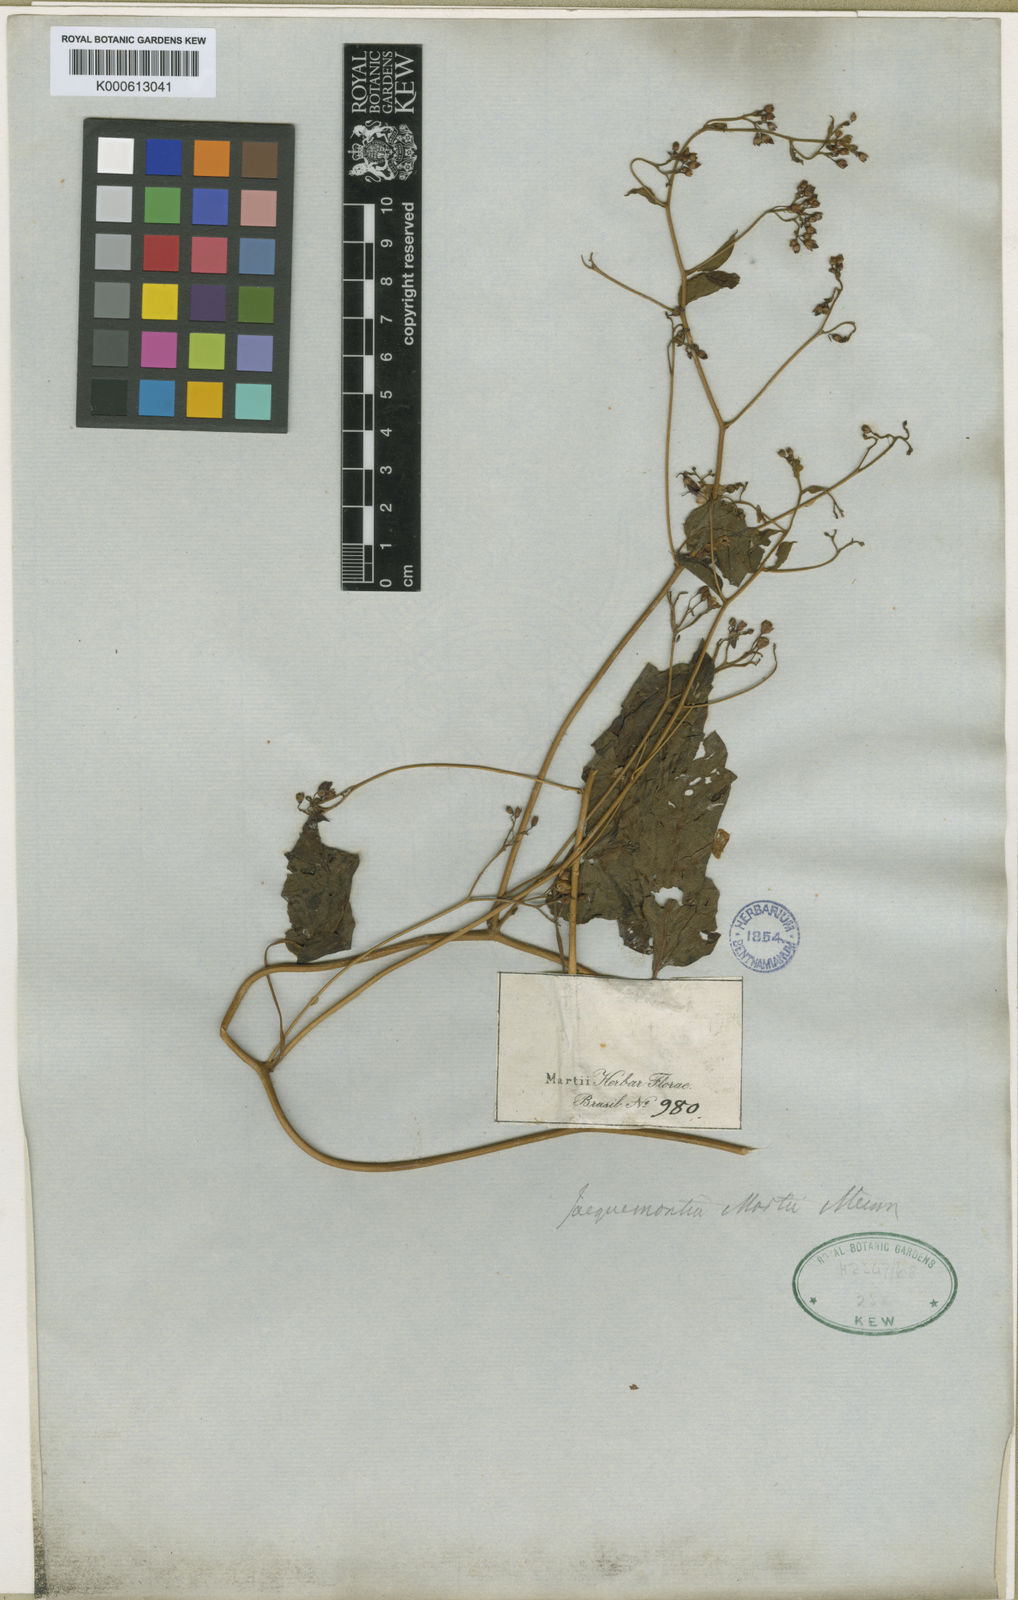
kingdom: Plantae
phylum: Tracheophyta
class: Magnoliopsida
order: Solanales
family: Convolvulaceae
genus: Jacquemontia
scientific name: Jacquemontia martii
